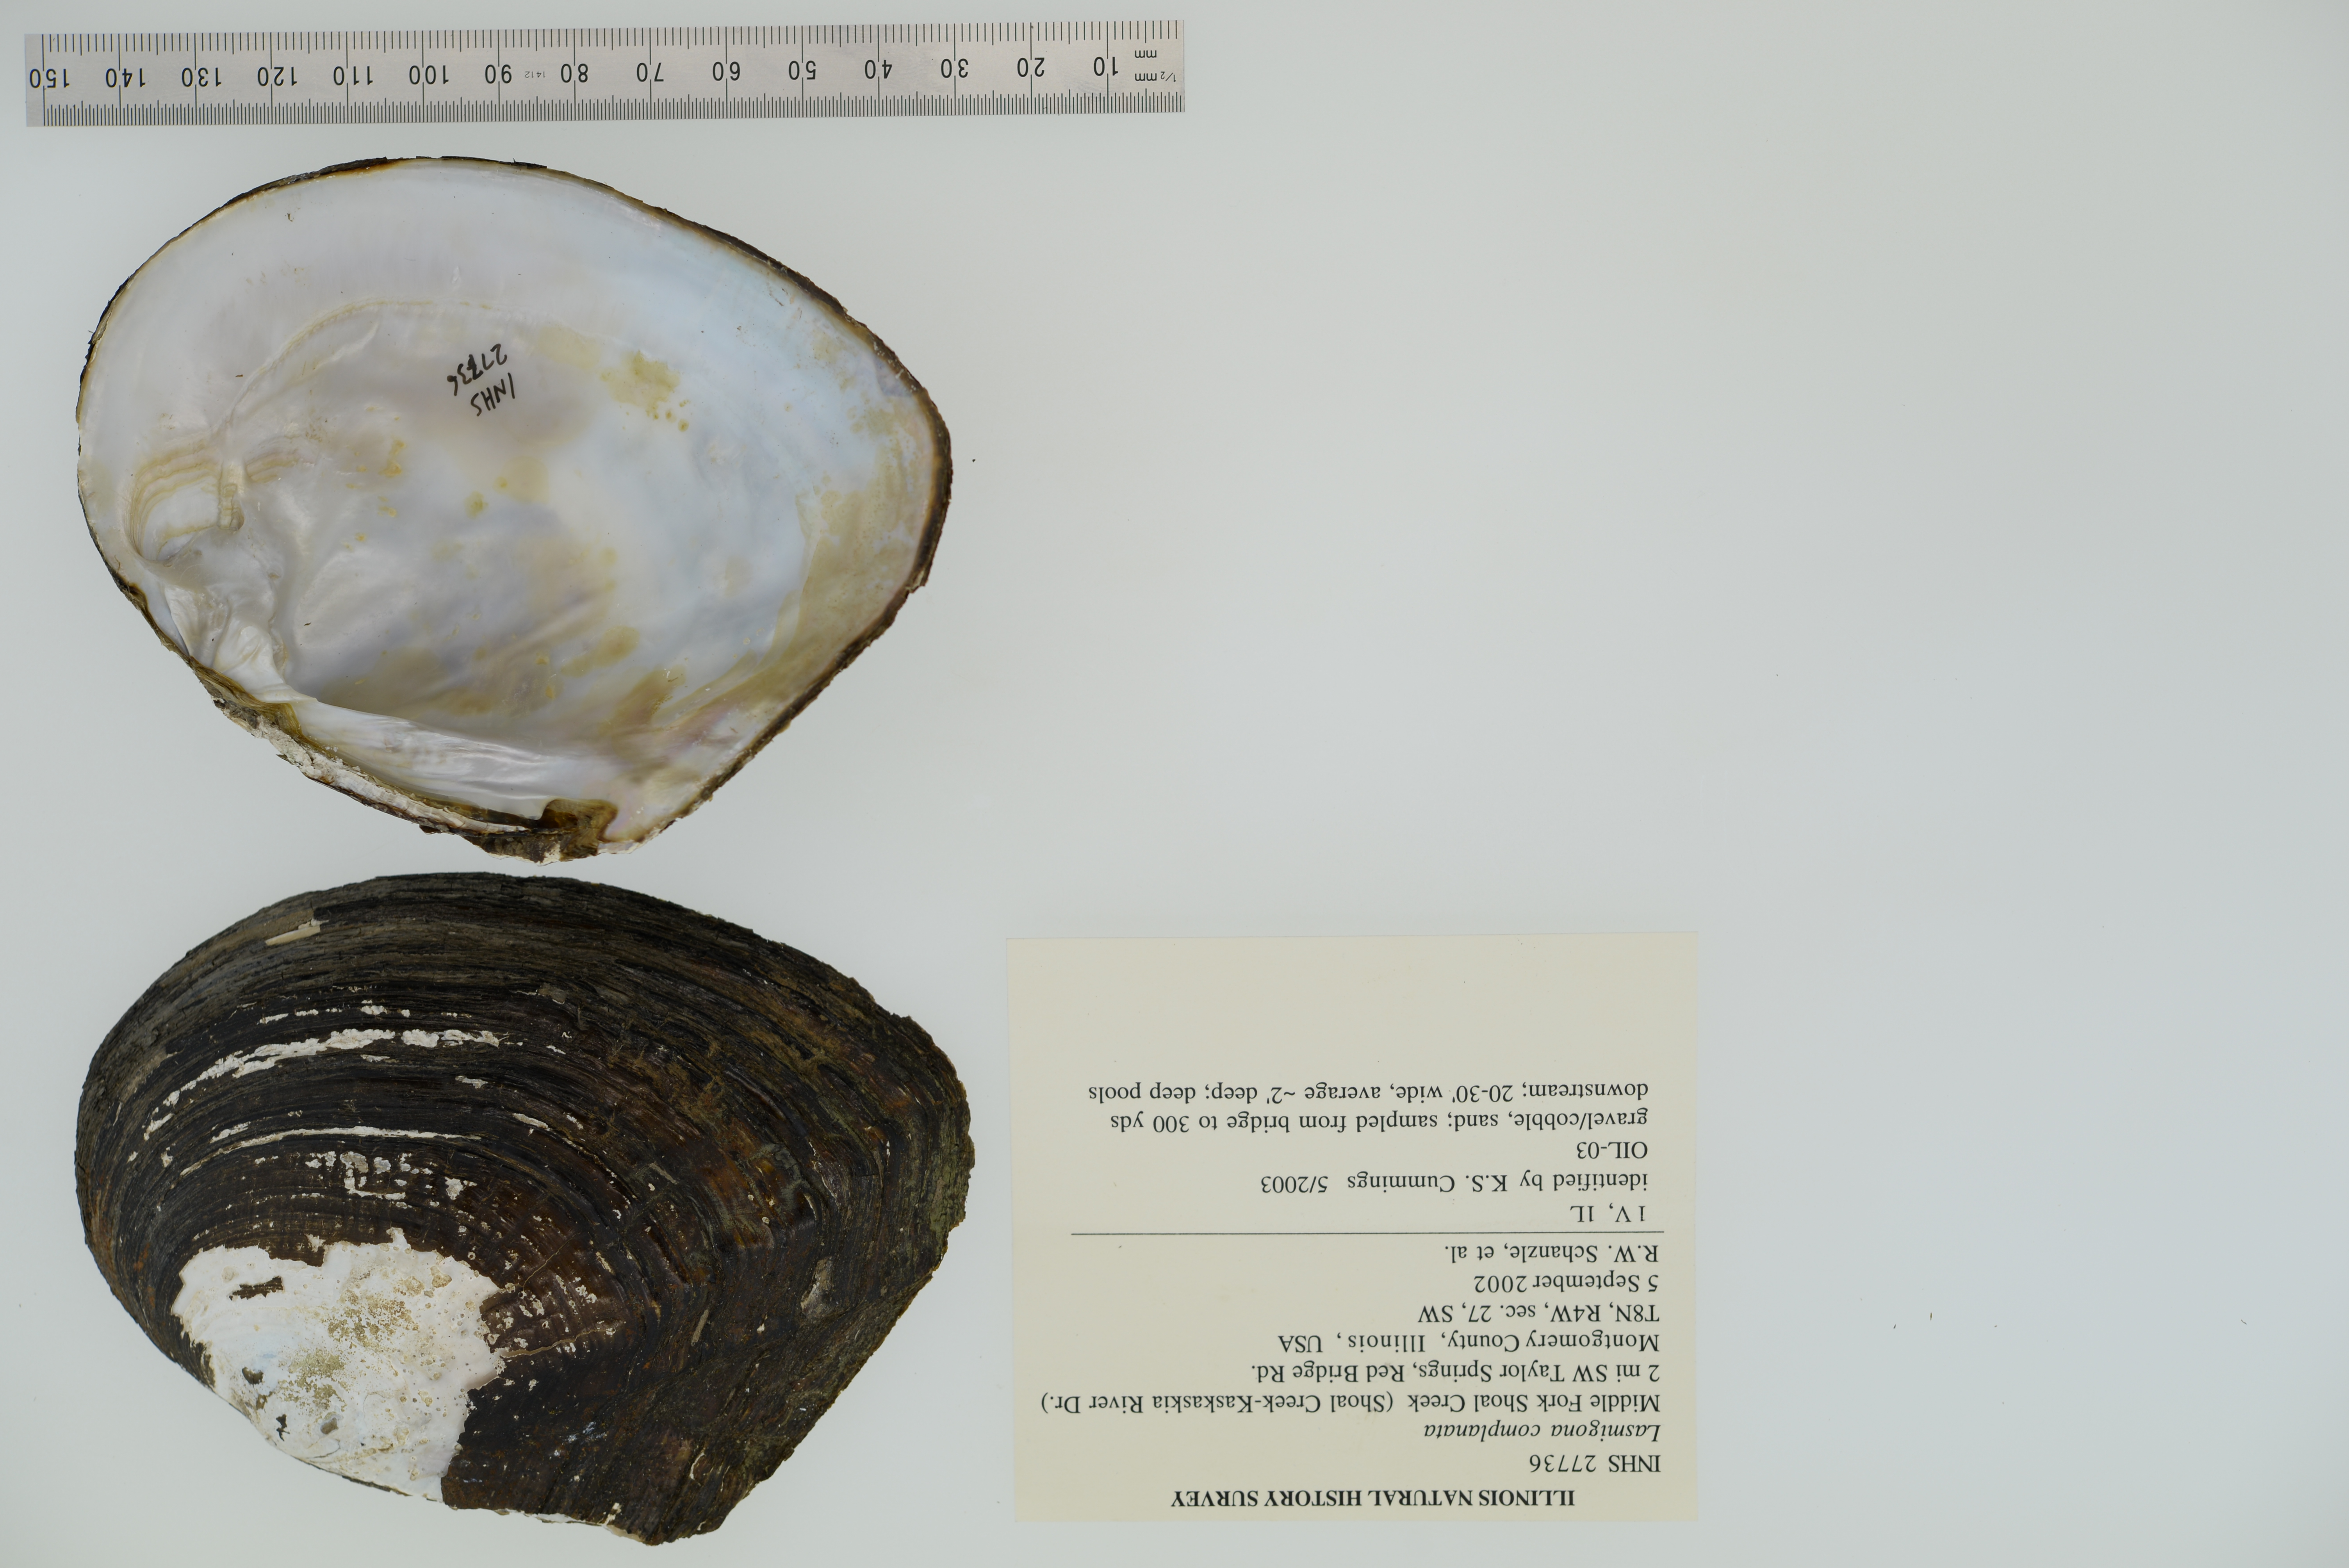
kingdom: Animalia
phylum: Mollusca
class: Bivalvia
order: Unionida
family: Unionidae
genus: Lasmigona
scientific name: Lasmigona complanata
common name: White heelsplitter
